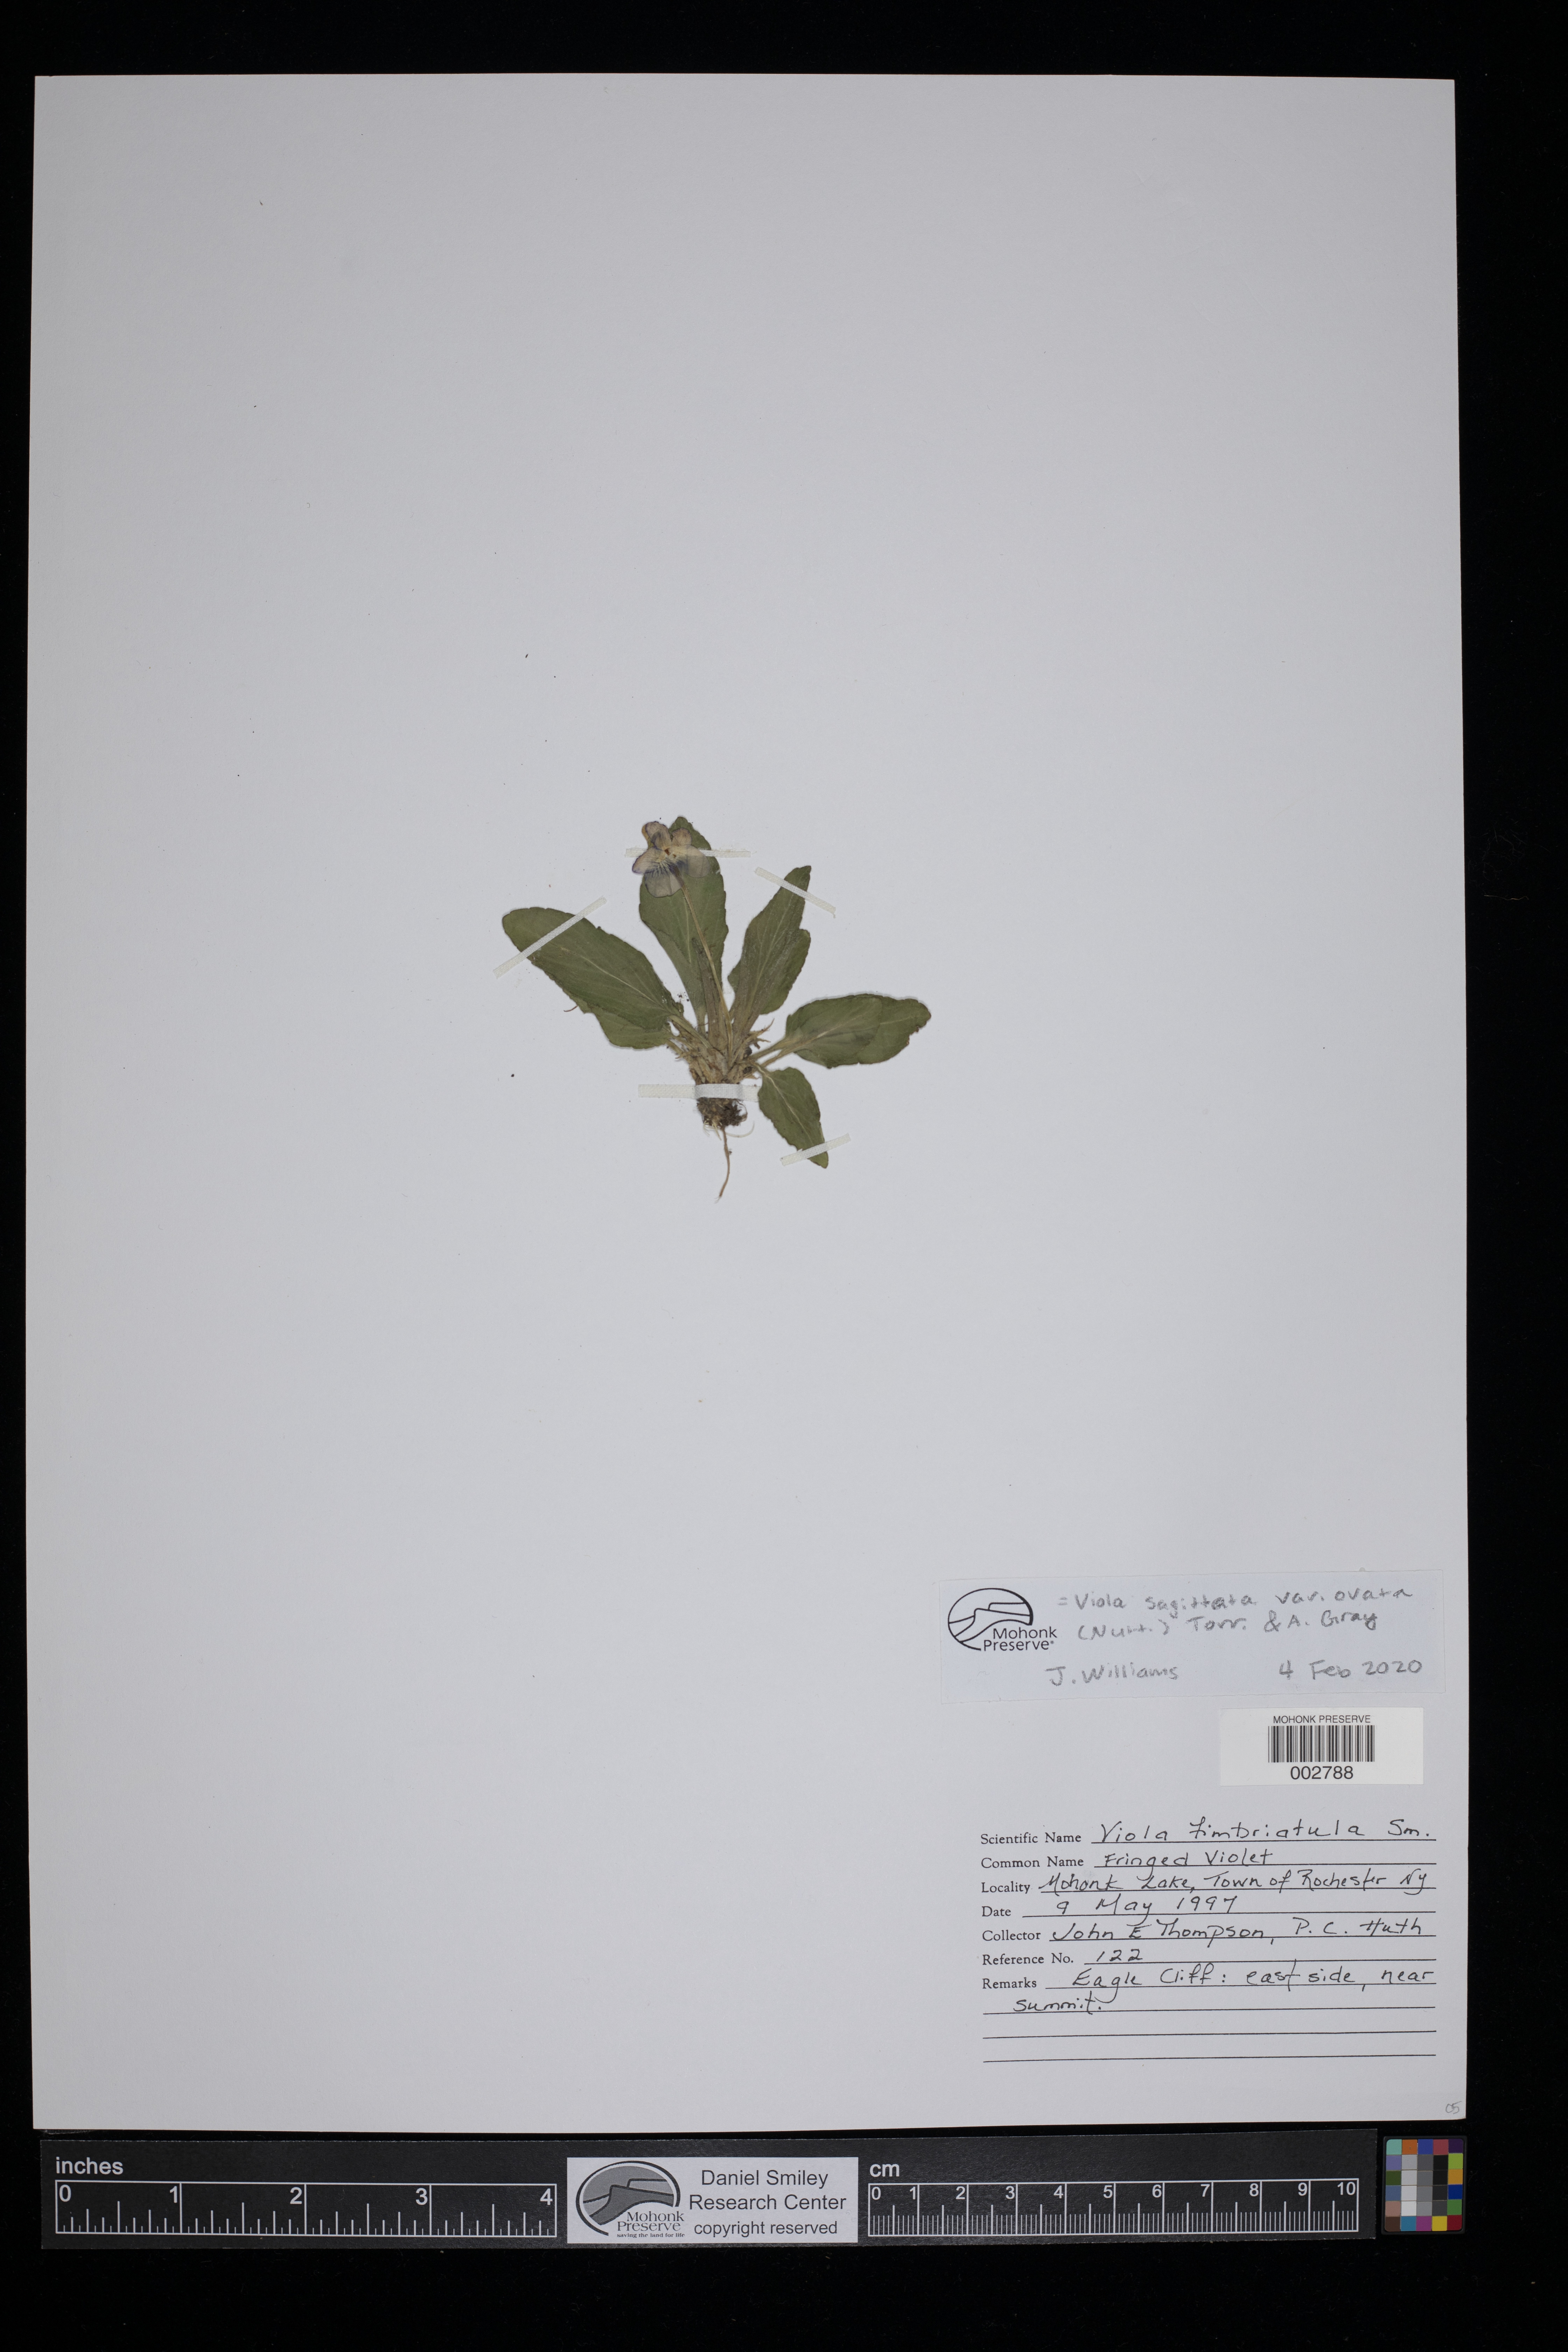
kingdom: Plantae
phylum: Tracheophyta
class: Magnoliopsida
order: Malpighiales
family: Violaceae
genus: Viola
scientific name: Viola fimbriatula
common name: Sand violet
